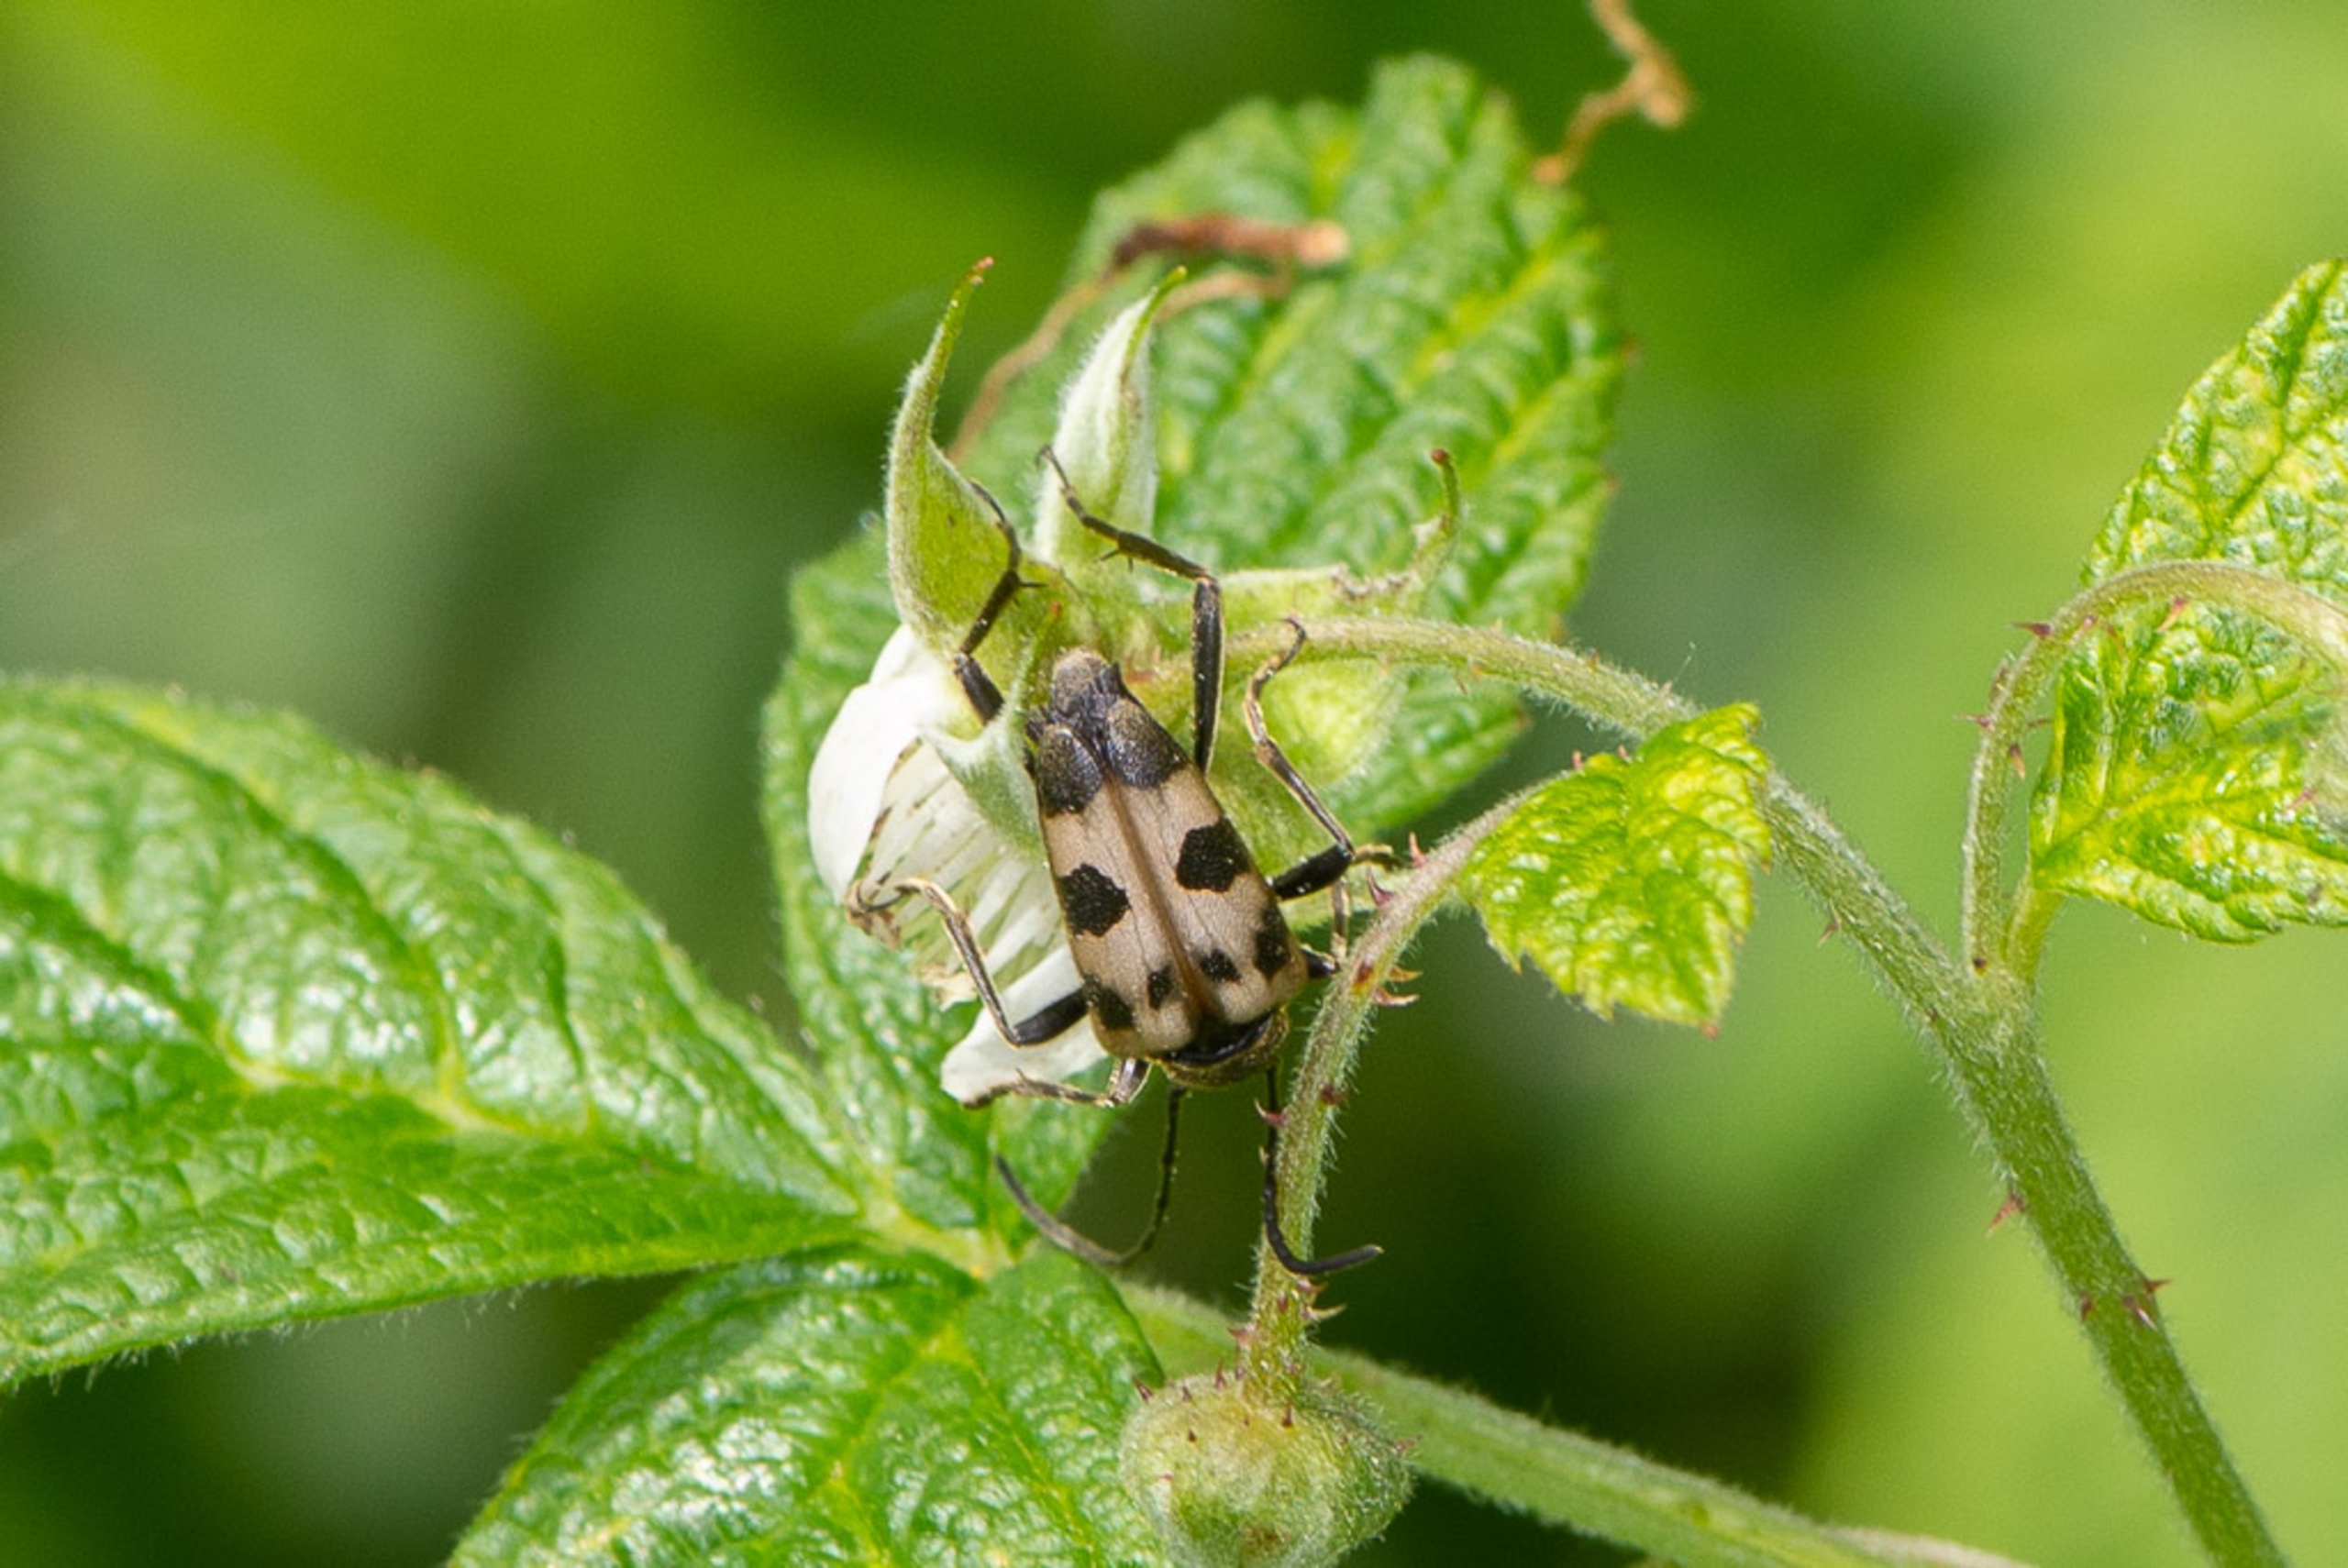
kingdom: Animalia
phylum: Arthropoda
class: Insecta
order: Coleoptera
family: Cerambycidae
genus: Pachytodes
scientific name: Pachytodes cerambyciformis
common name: Jysk blomsterbuk
